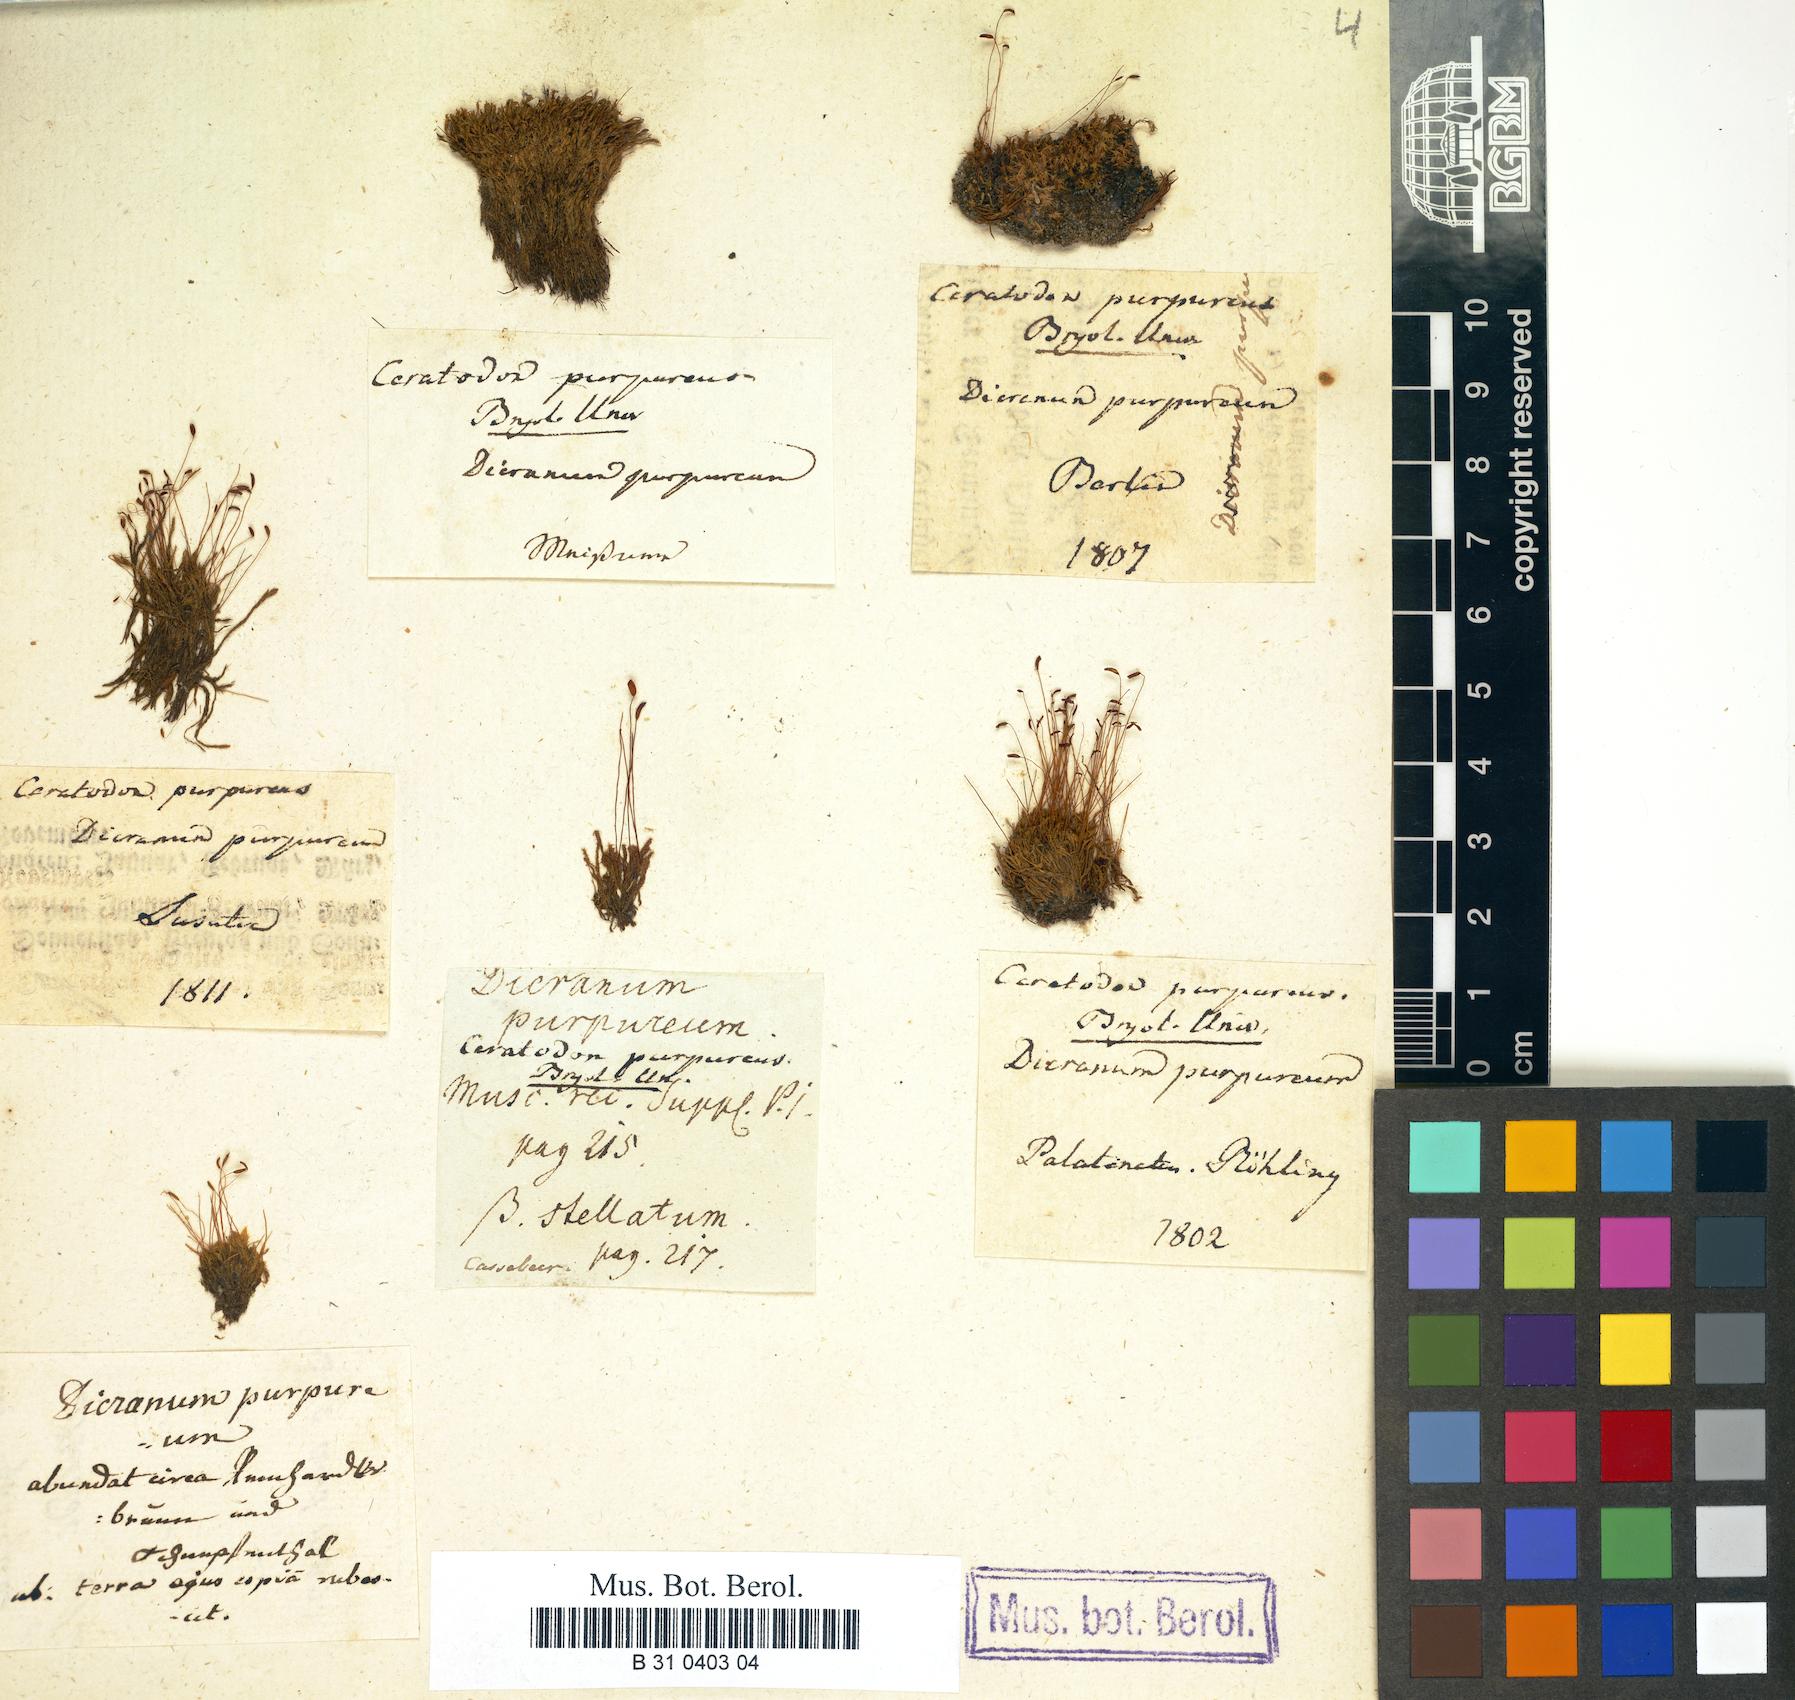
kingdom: Plantae
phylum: Bryophyta
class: Bryopsida
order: Dicranales
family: Ditrichaceae
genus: Ceratodon
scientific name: Ceratodon purpureus
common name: Redshank
